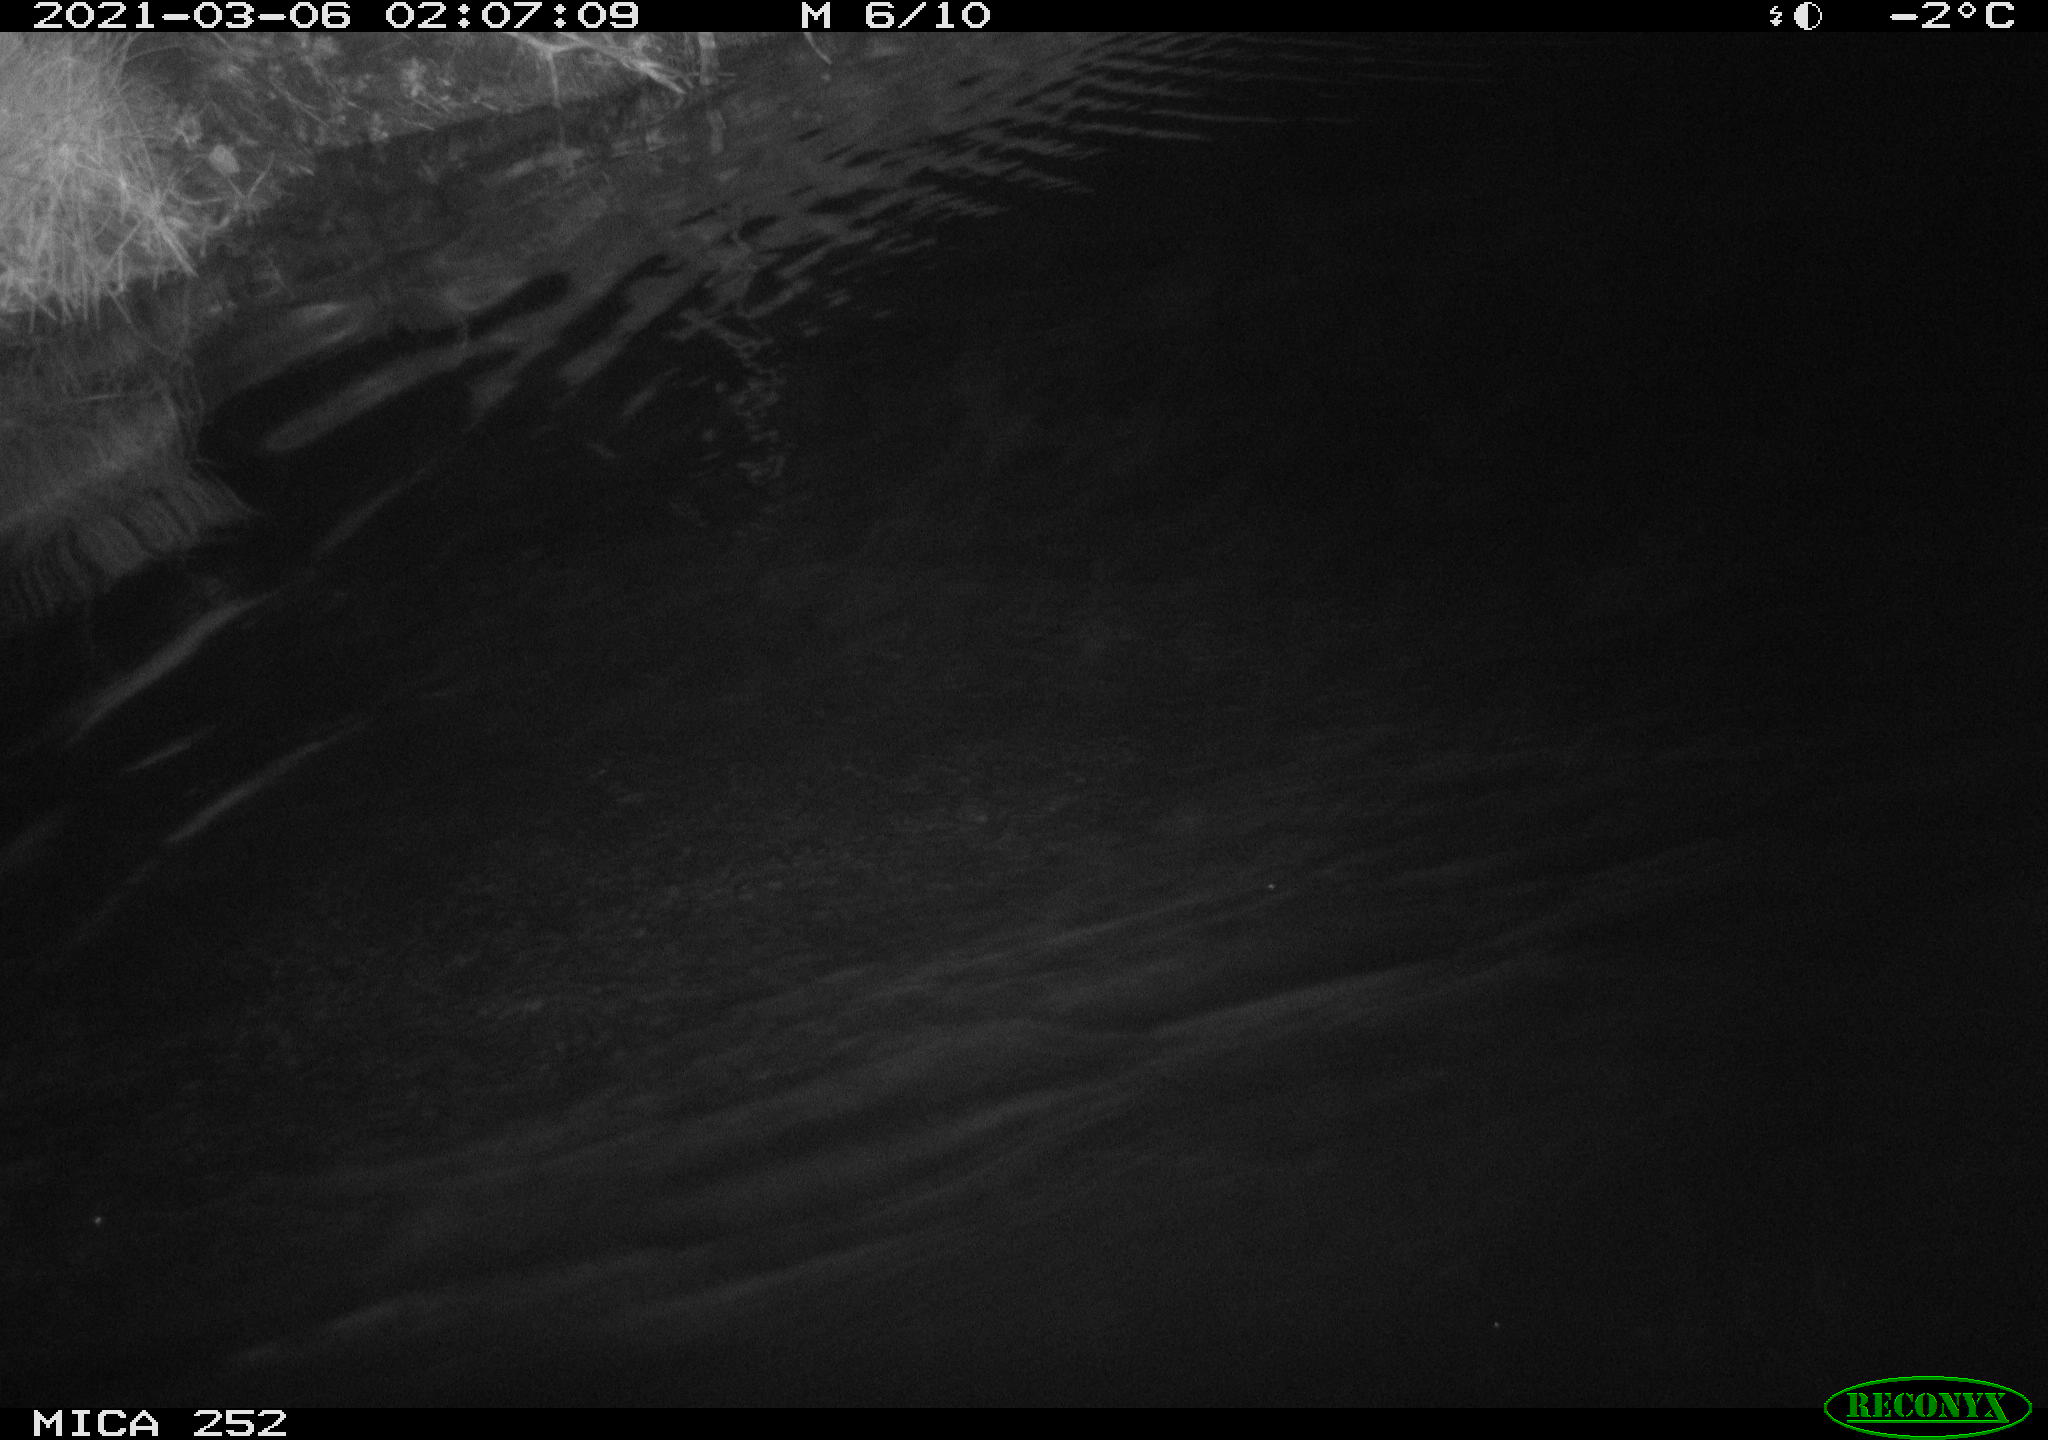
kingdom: Animalia
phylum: Chordata
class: Mammalia
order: Rodentia
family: Castoridae
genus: Castor
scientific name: Castor fiber
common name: Eurasian beaver
